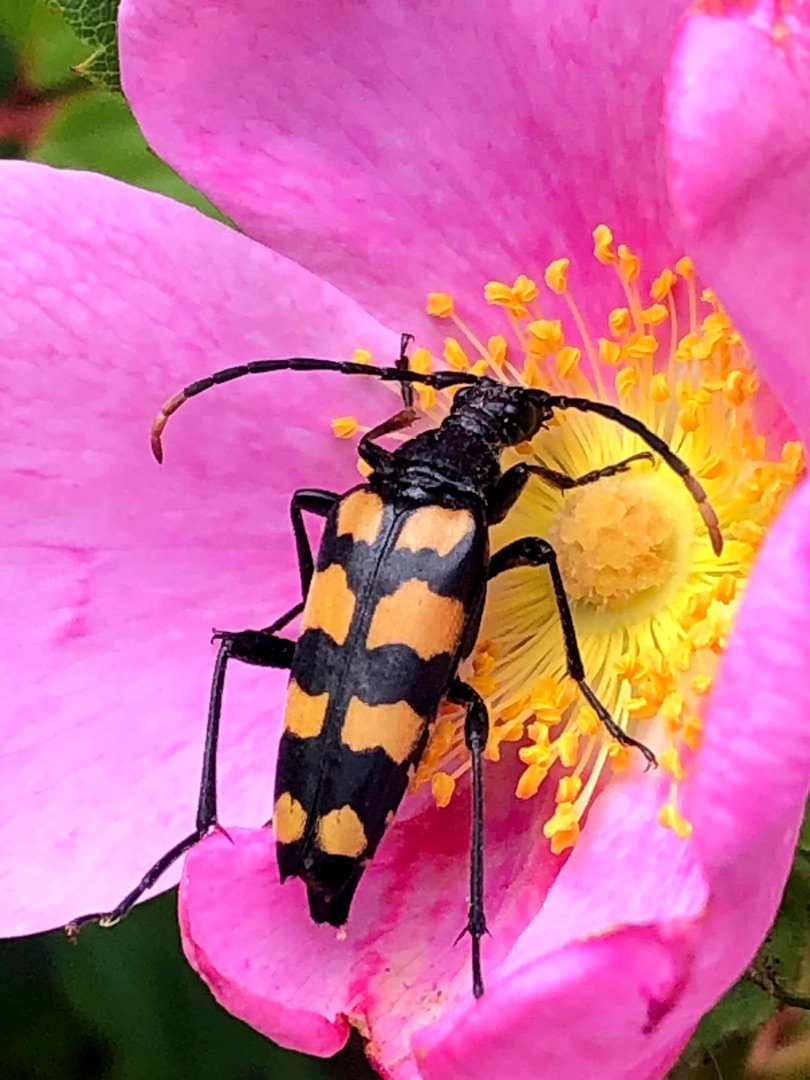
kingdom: Animalia
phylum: Arthropoda
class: Insecta
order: Coleoptera
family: Cerambycidae
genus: Leptura
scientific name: Leptura quadrifasciata
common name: Firebåndet blomsterbuk
